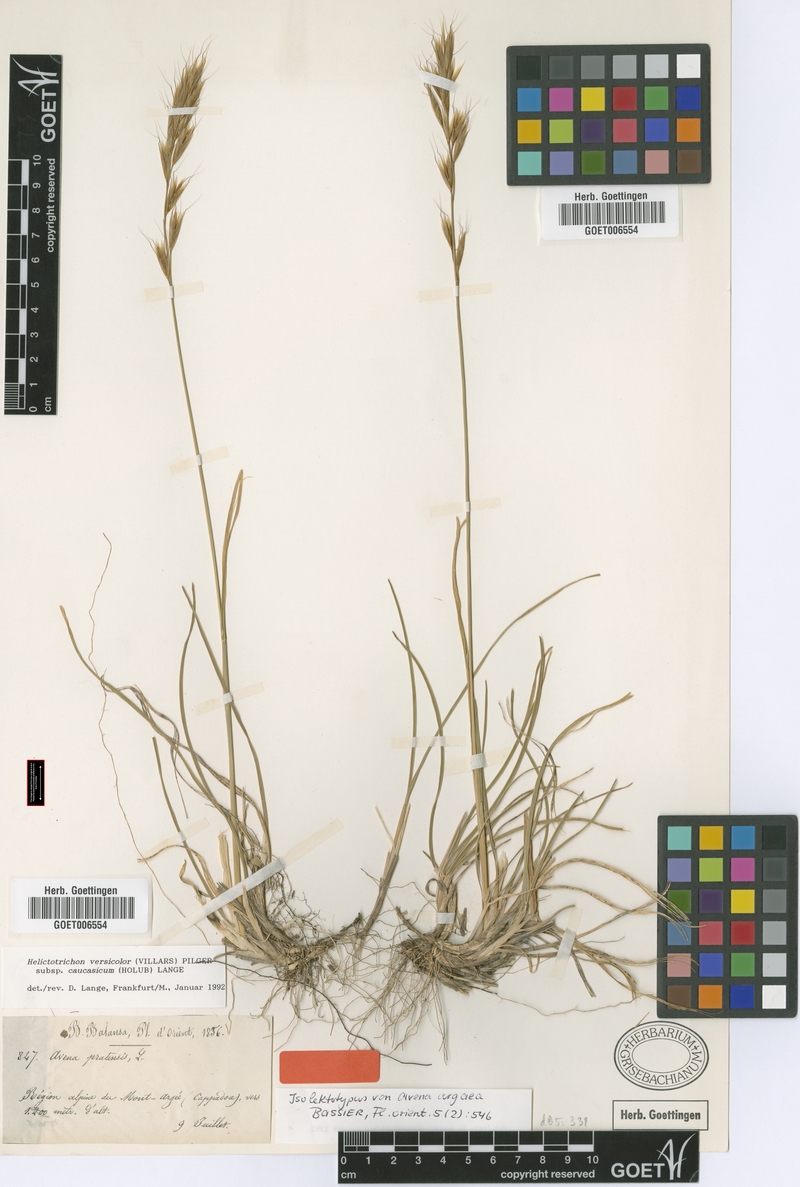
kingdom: Plantae
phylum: Tracheophyta
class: Liliopsida
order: Poales
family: Poaceae
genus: Helictochloa
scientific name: Helictochloa versicolor
